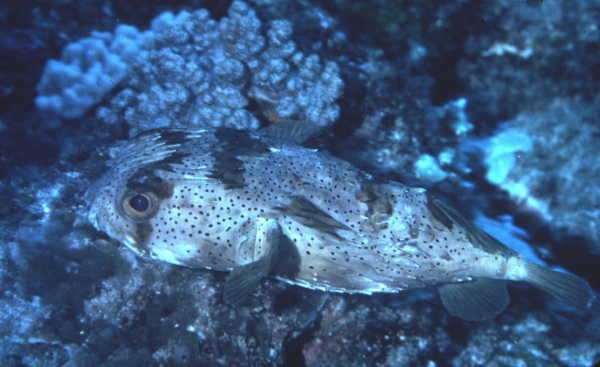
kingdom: Animalia
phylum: Chordata
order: Tetraodontiformes
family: Diodontidae
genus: Diodon
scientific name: Diodon holocanthus
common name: Balloonfish
